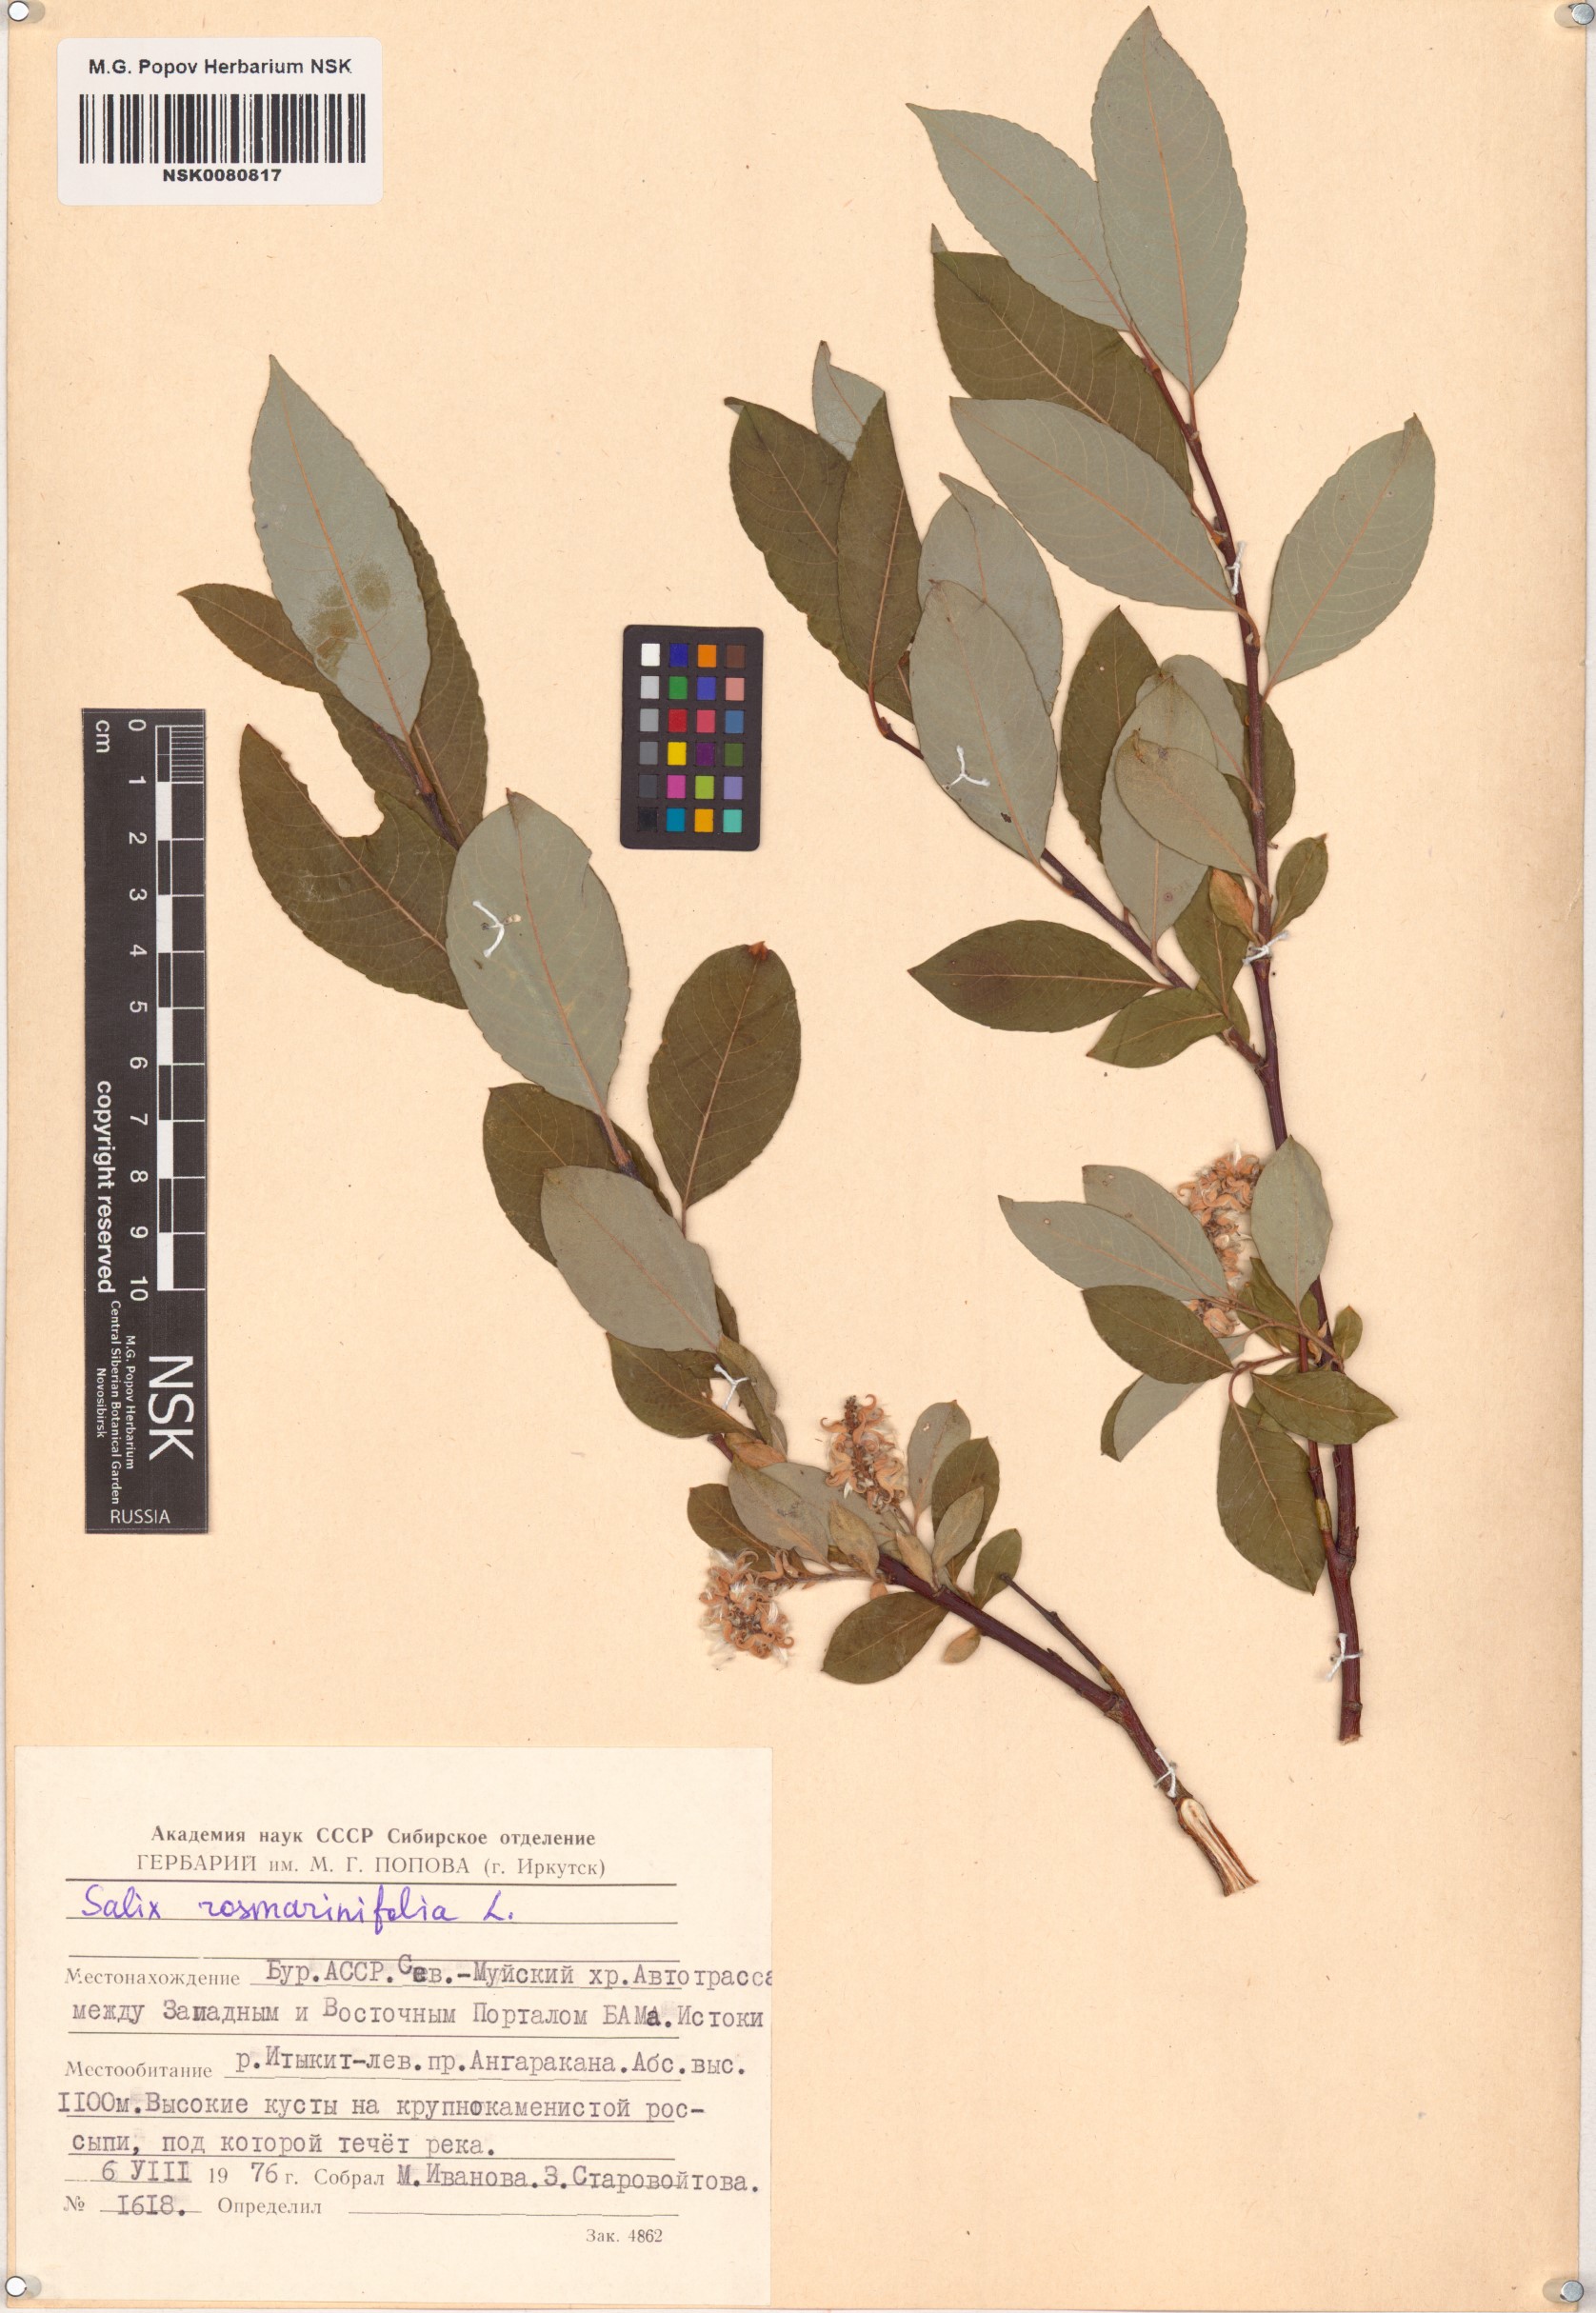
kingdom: Plantae
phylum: Tracheophyta
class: Magnoliopsida
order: Malpighiales
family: Salicaceae
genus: Salix
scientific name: Salix rosmarinifolia
